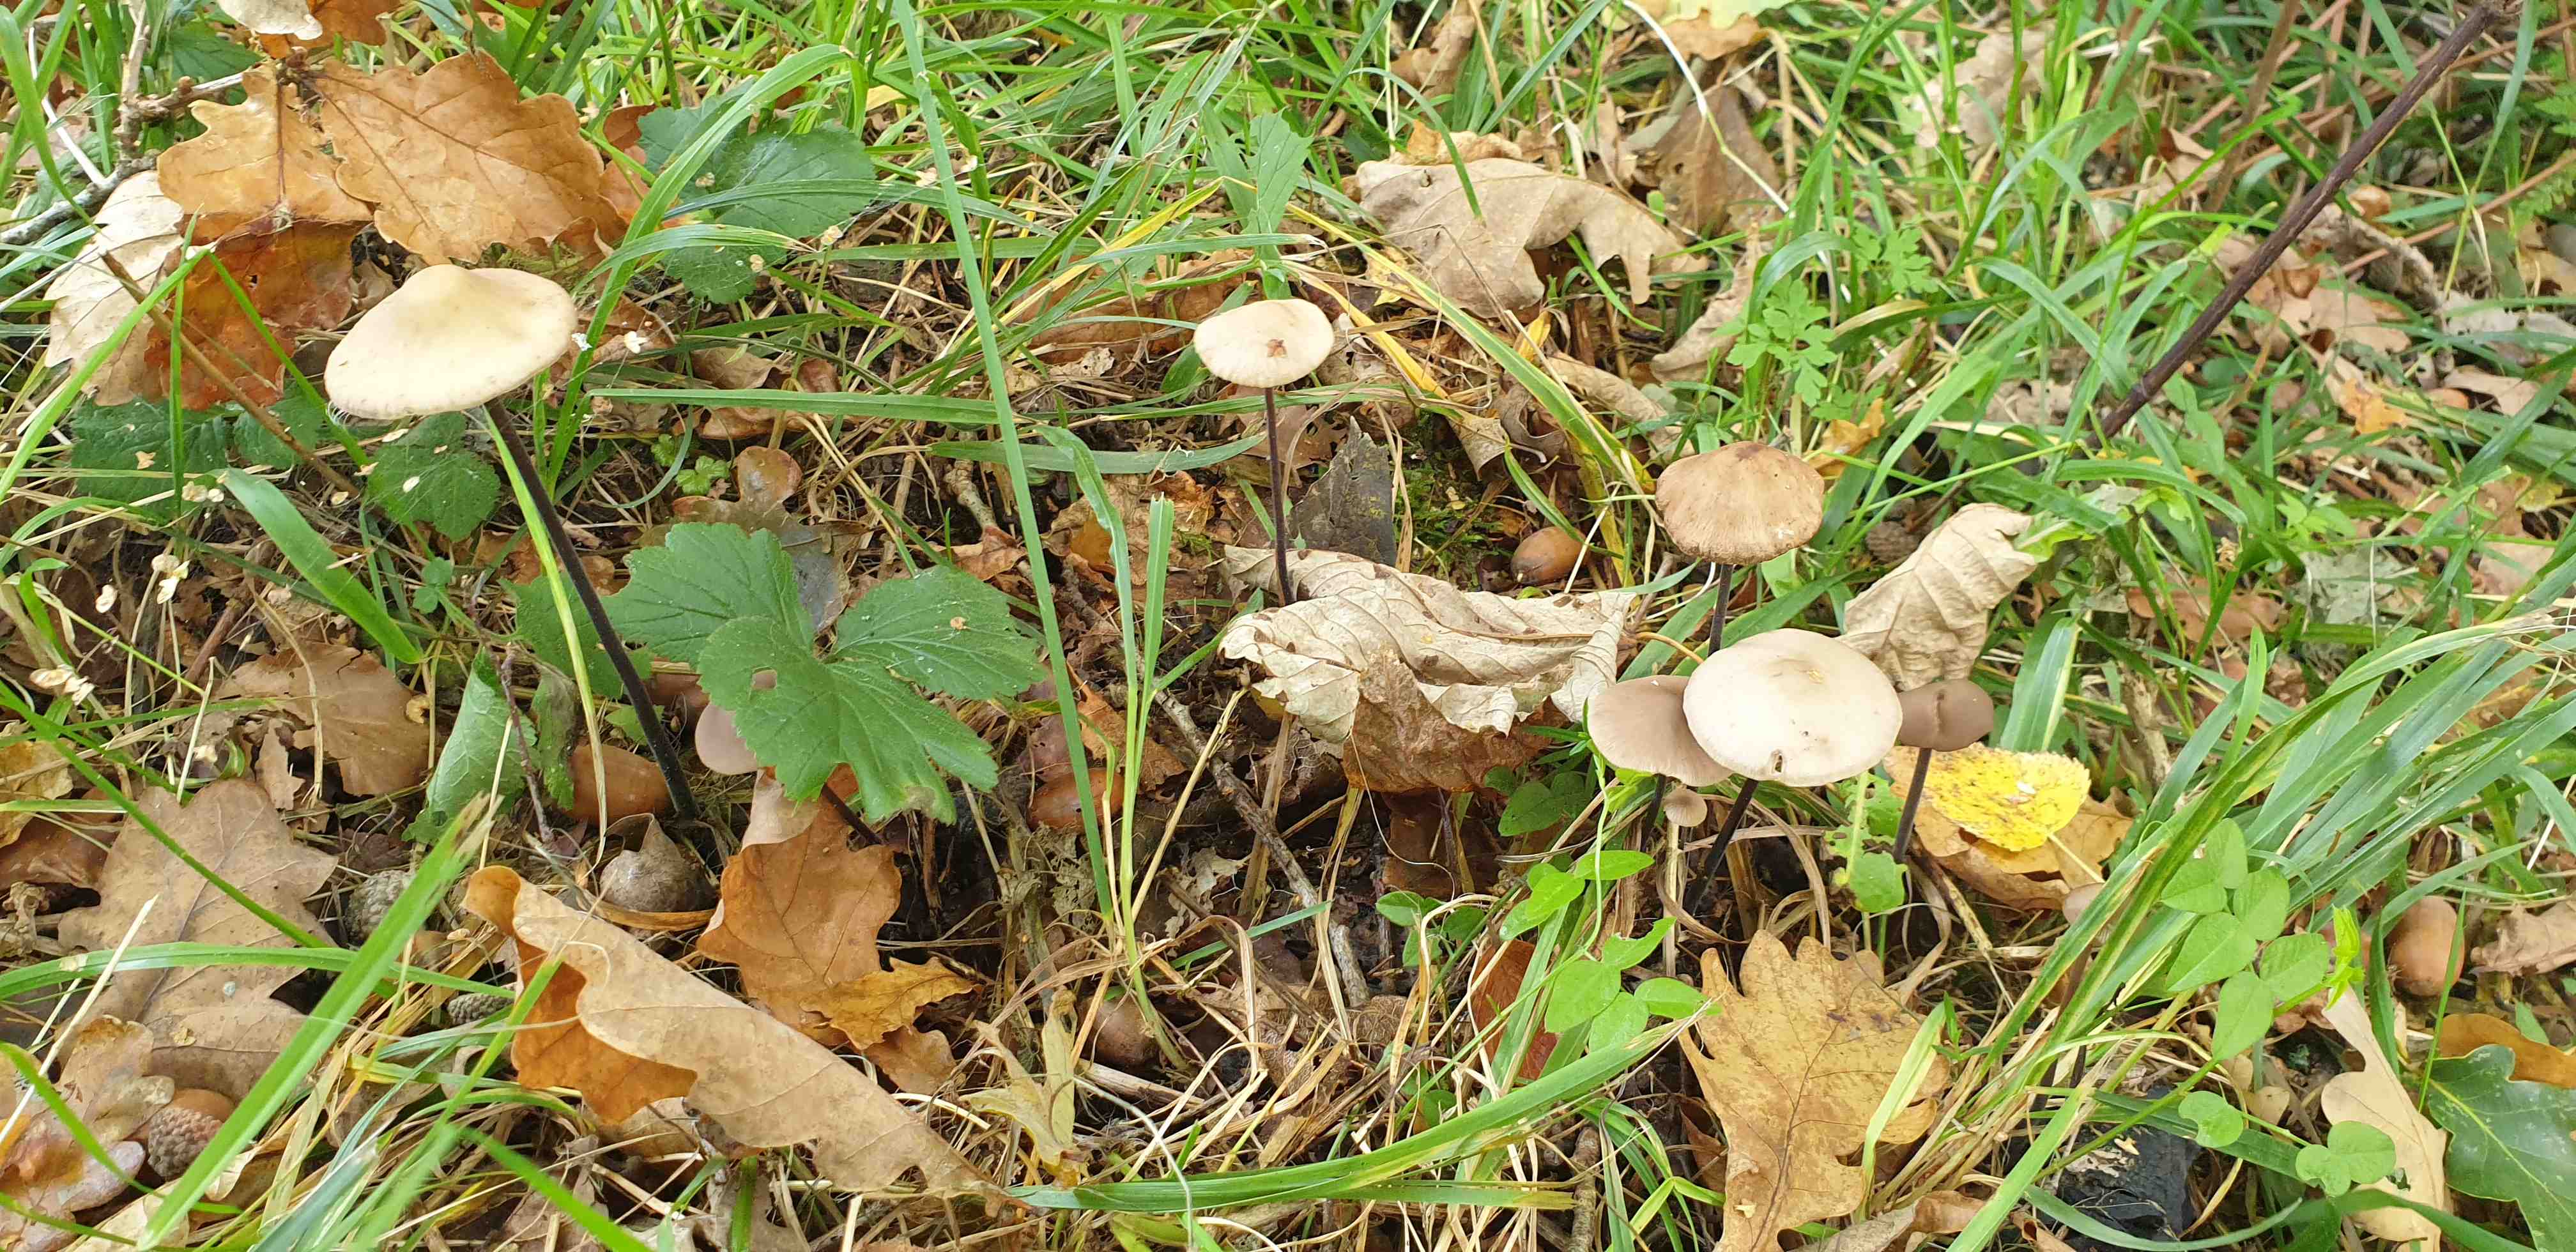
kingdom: Fungi
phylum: Basidiomycota
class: Agaricomycetes
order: Agaricales
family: Omphalotaceae
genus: Mycetinis
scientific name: Mycetinis alliaceus
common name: stor løghat
